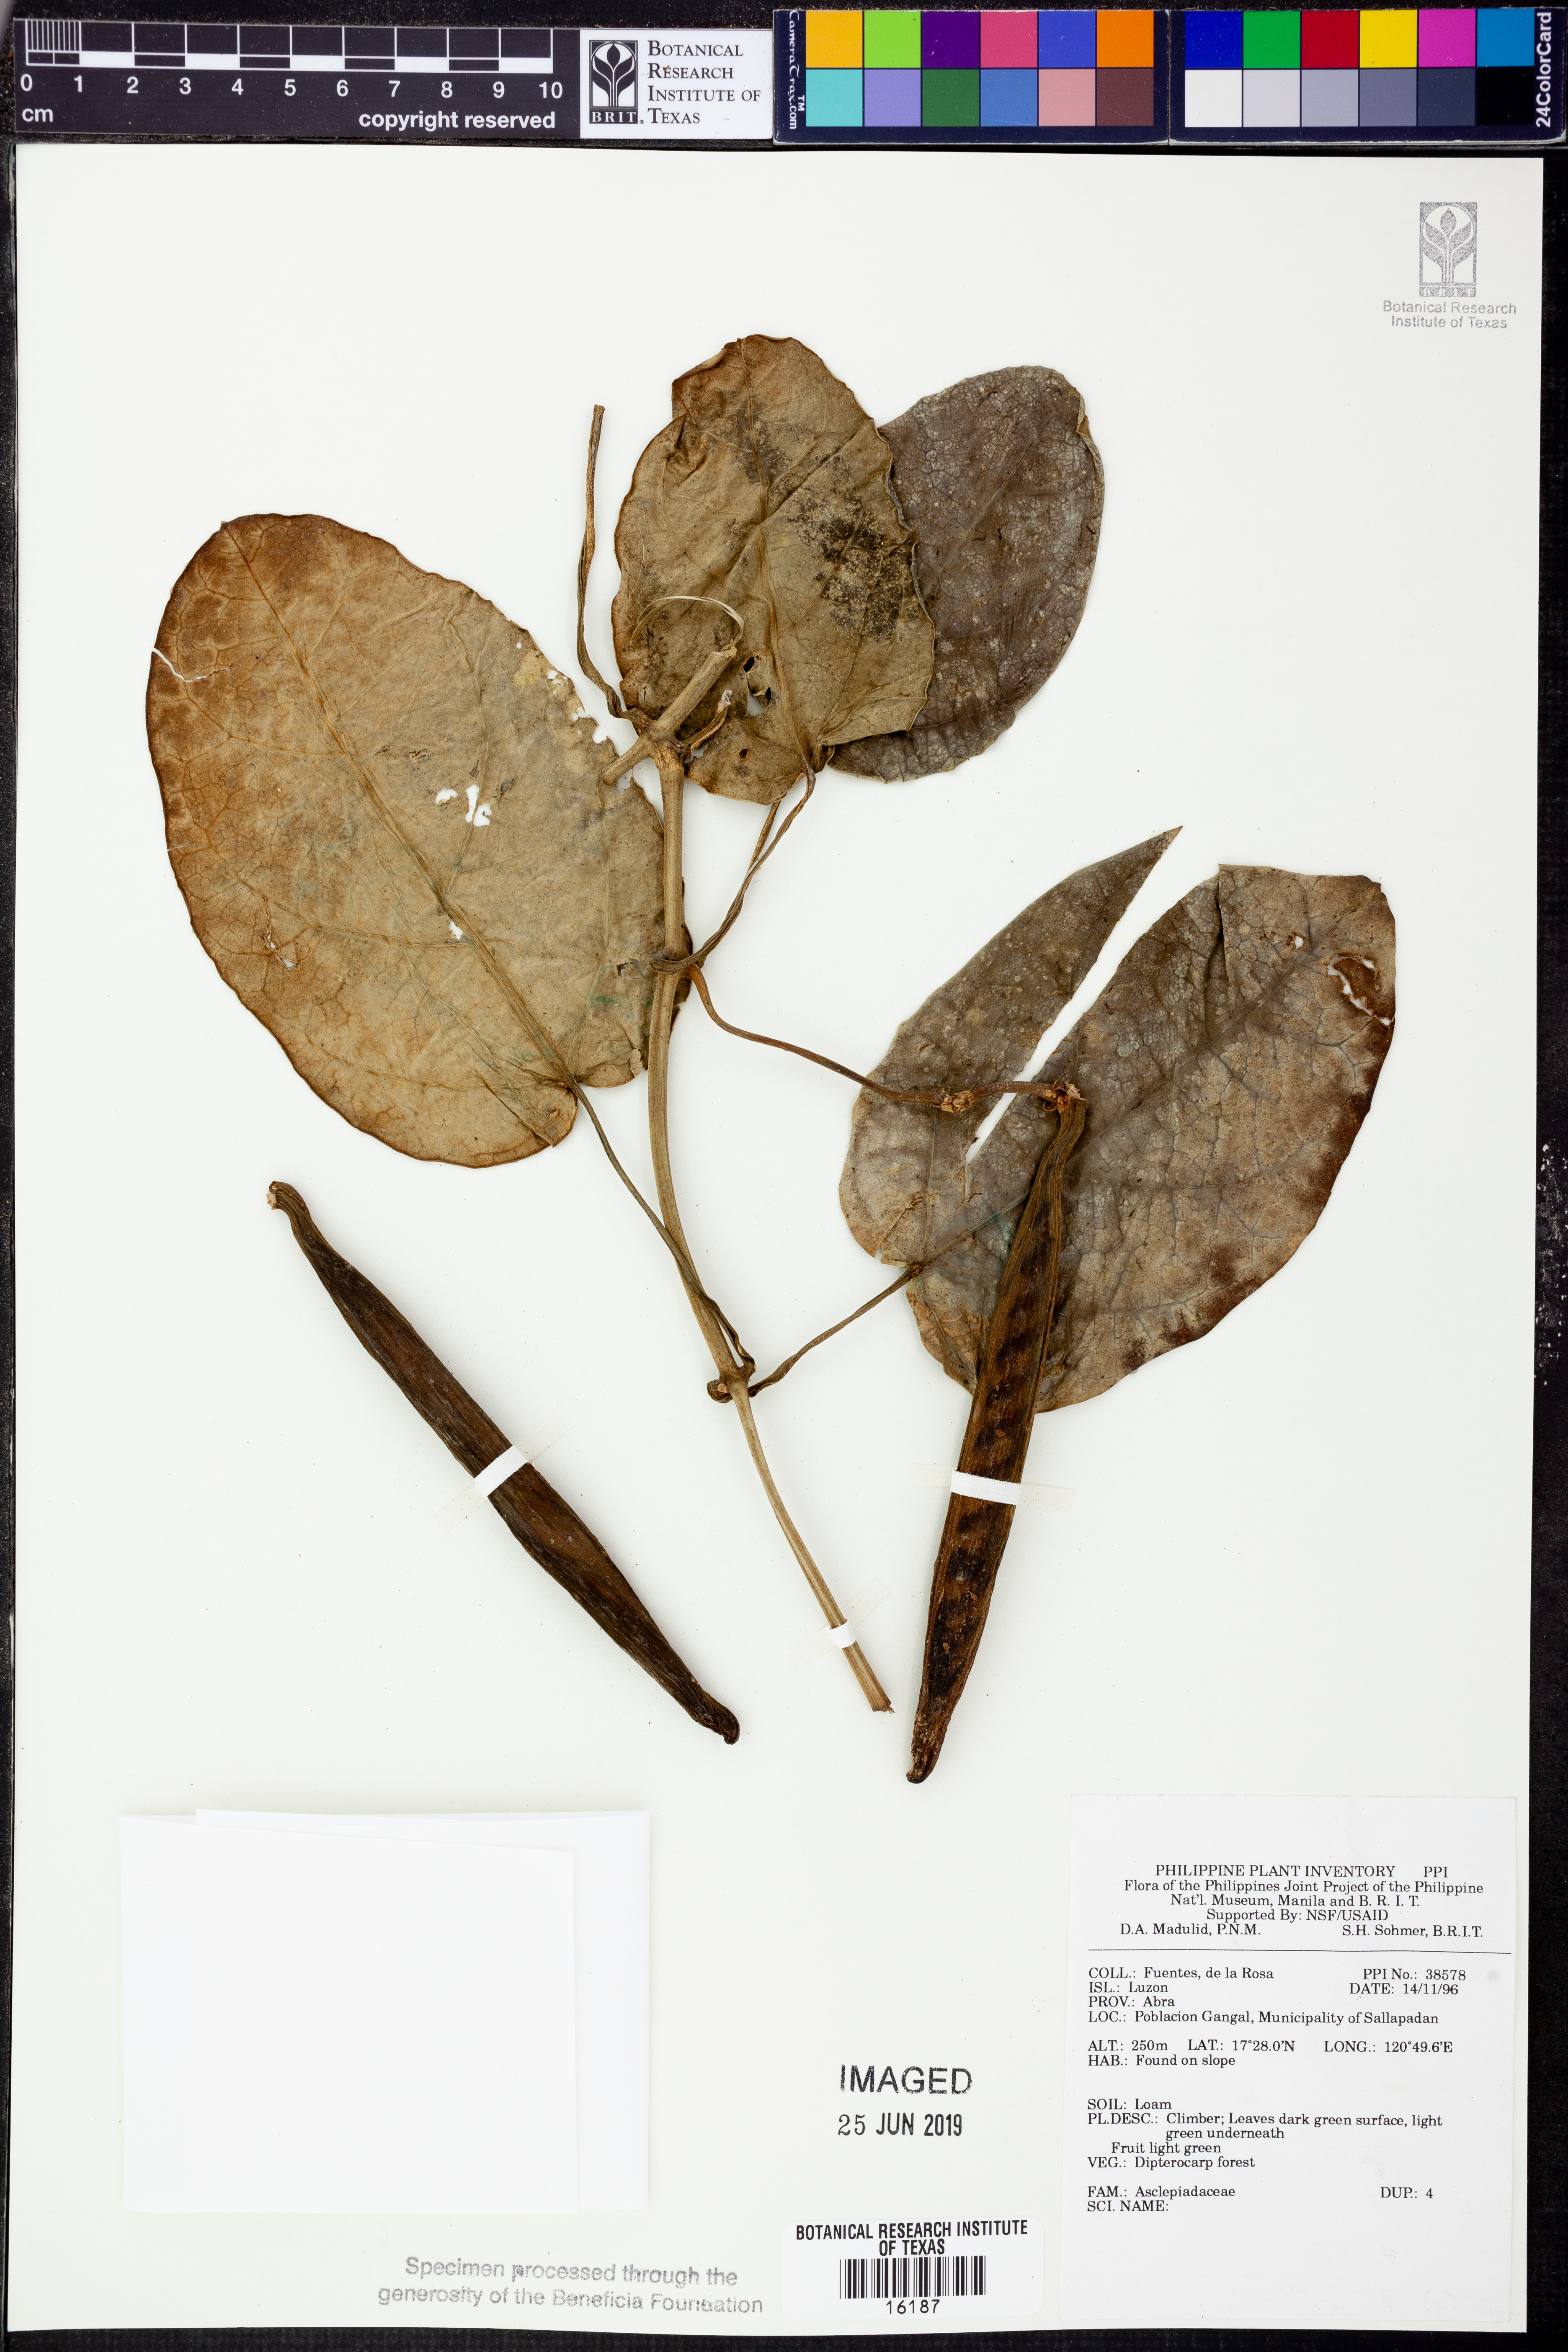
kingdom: Plantae
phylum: Tracheophyta
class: Magnoliopsida
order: Gentianales
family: Apocynaceae
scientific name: Apocynaceae
